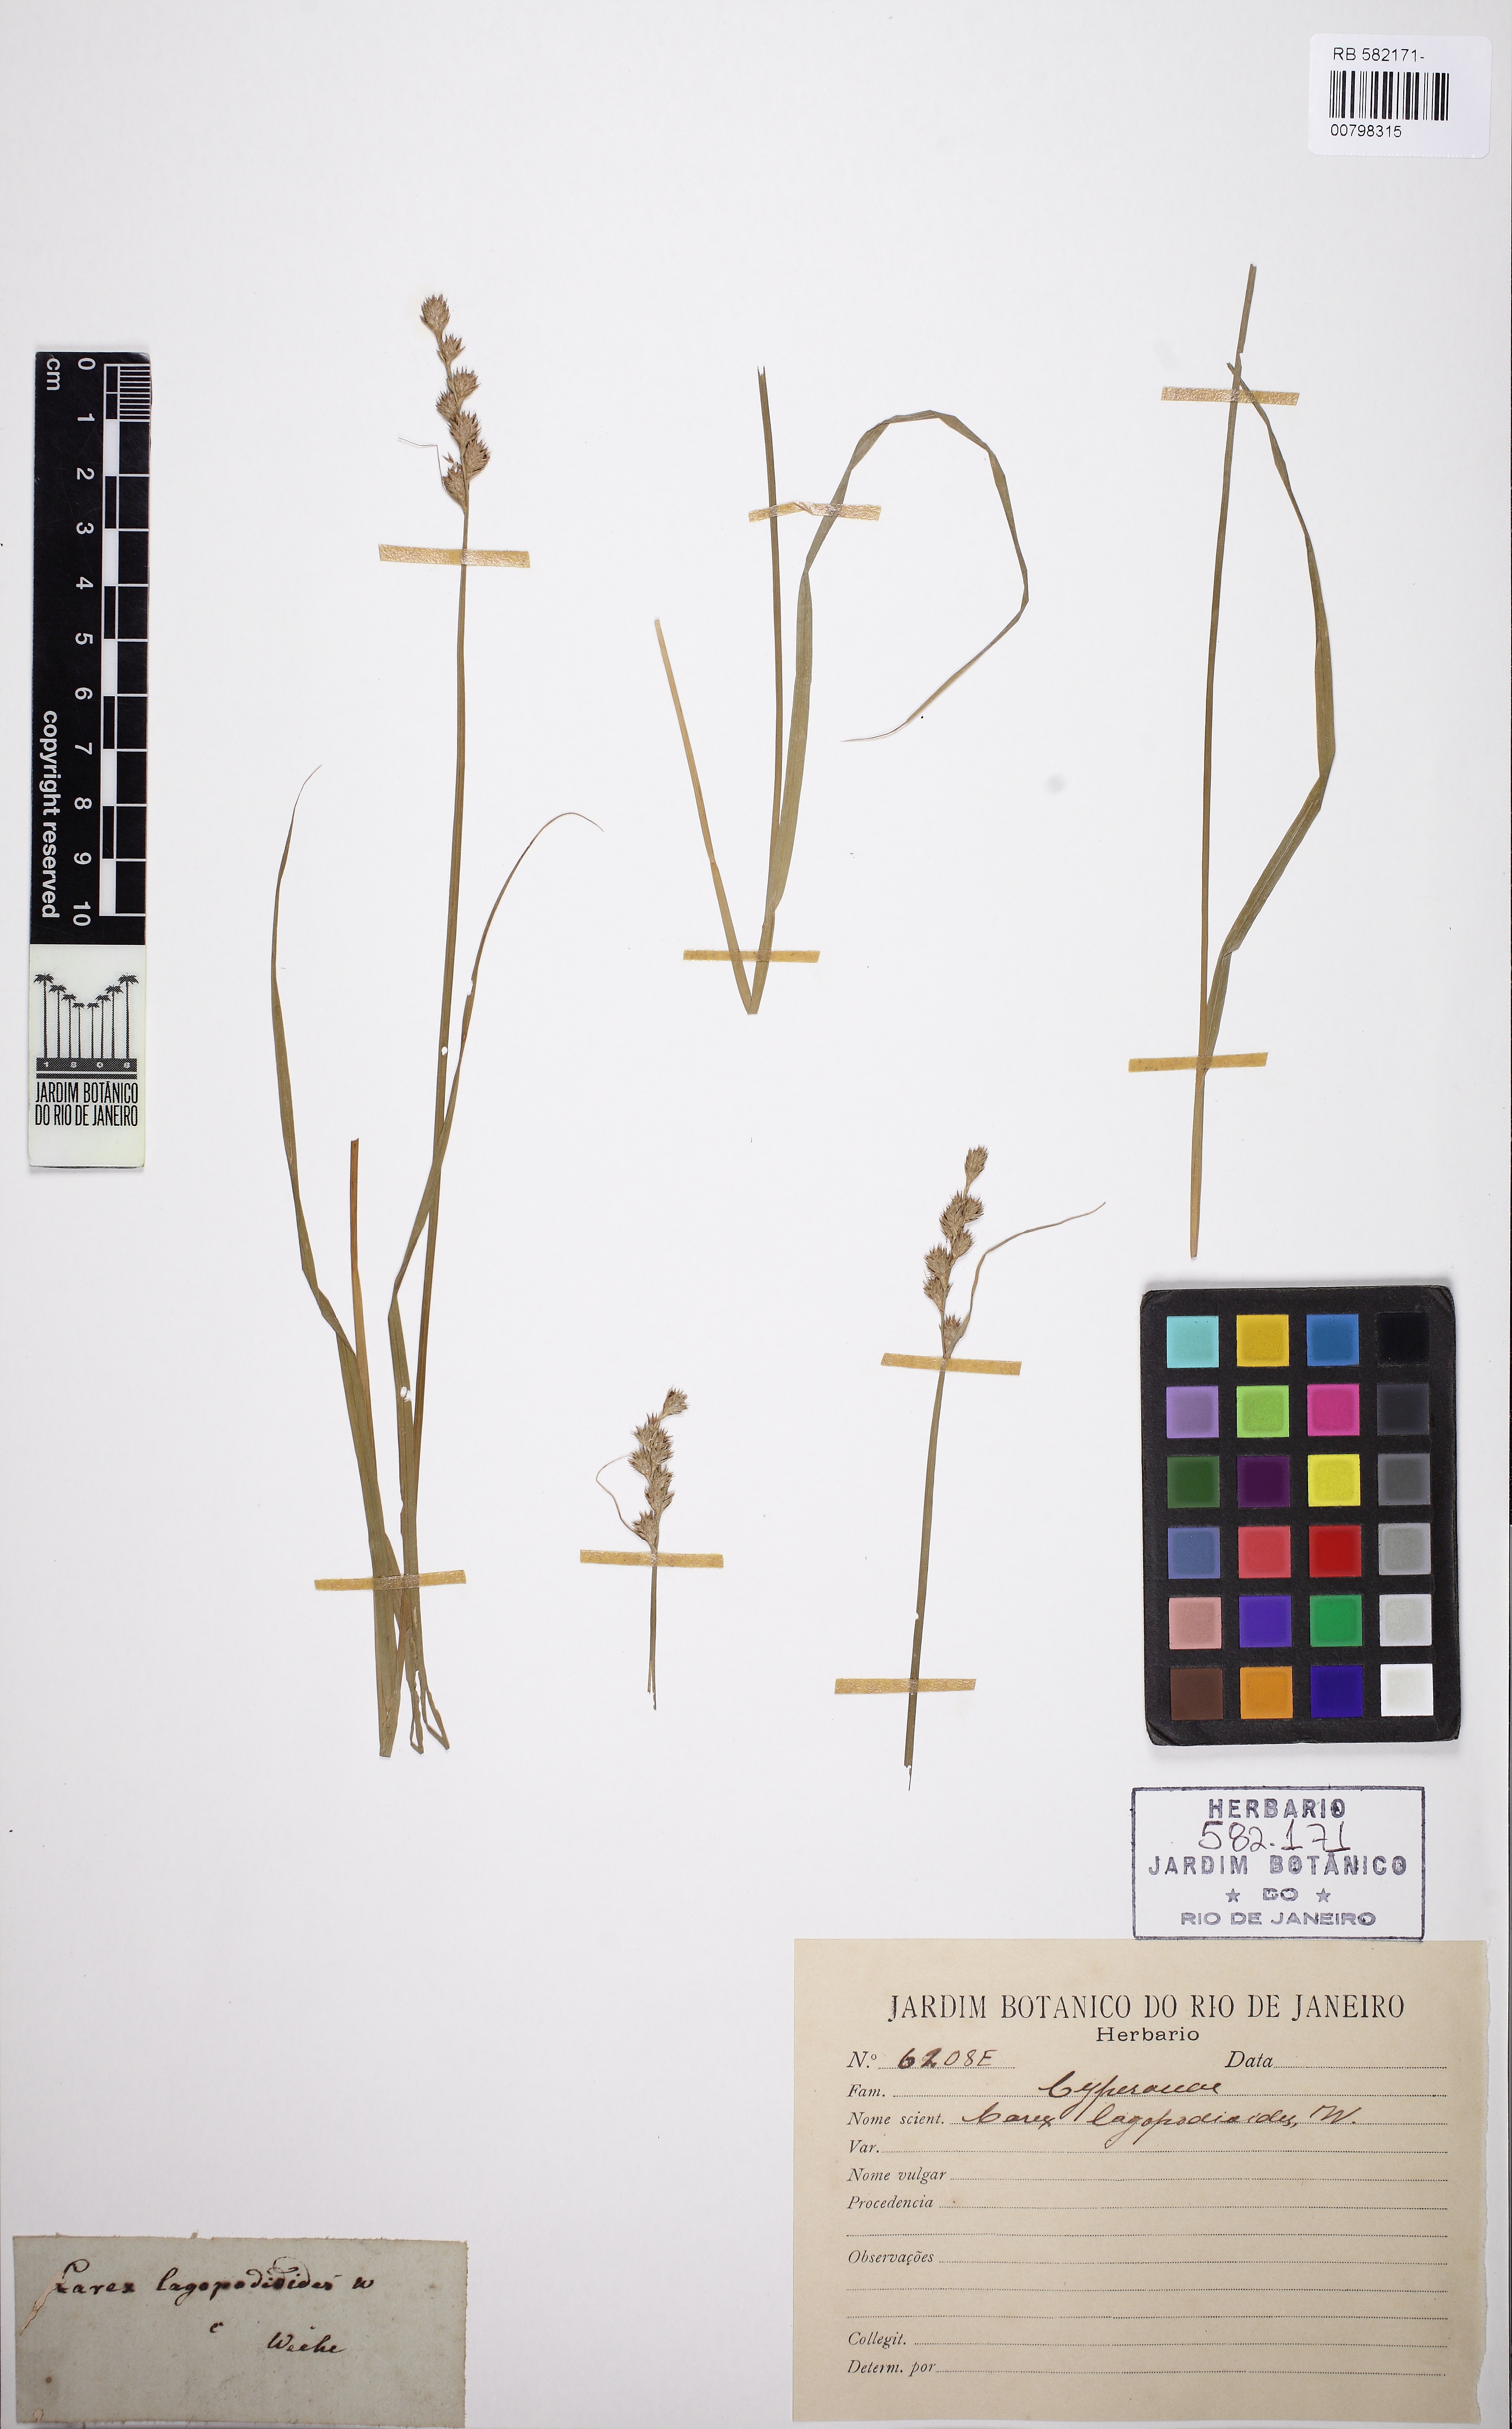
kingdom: Plantae
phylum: Tracheophyta
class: Liliopsida
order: Poales
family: Cyperaceae
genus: Carex
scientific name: Carex tribuloides
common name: Blunt broom sedge
